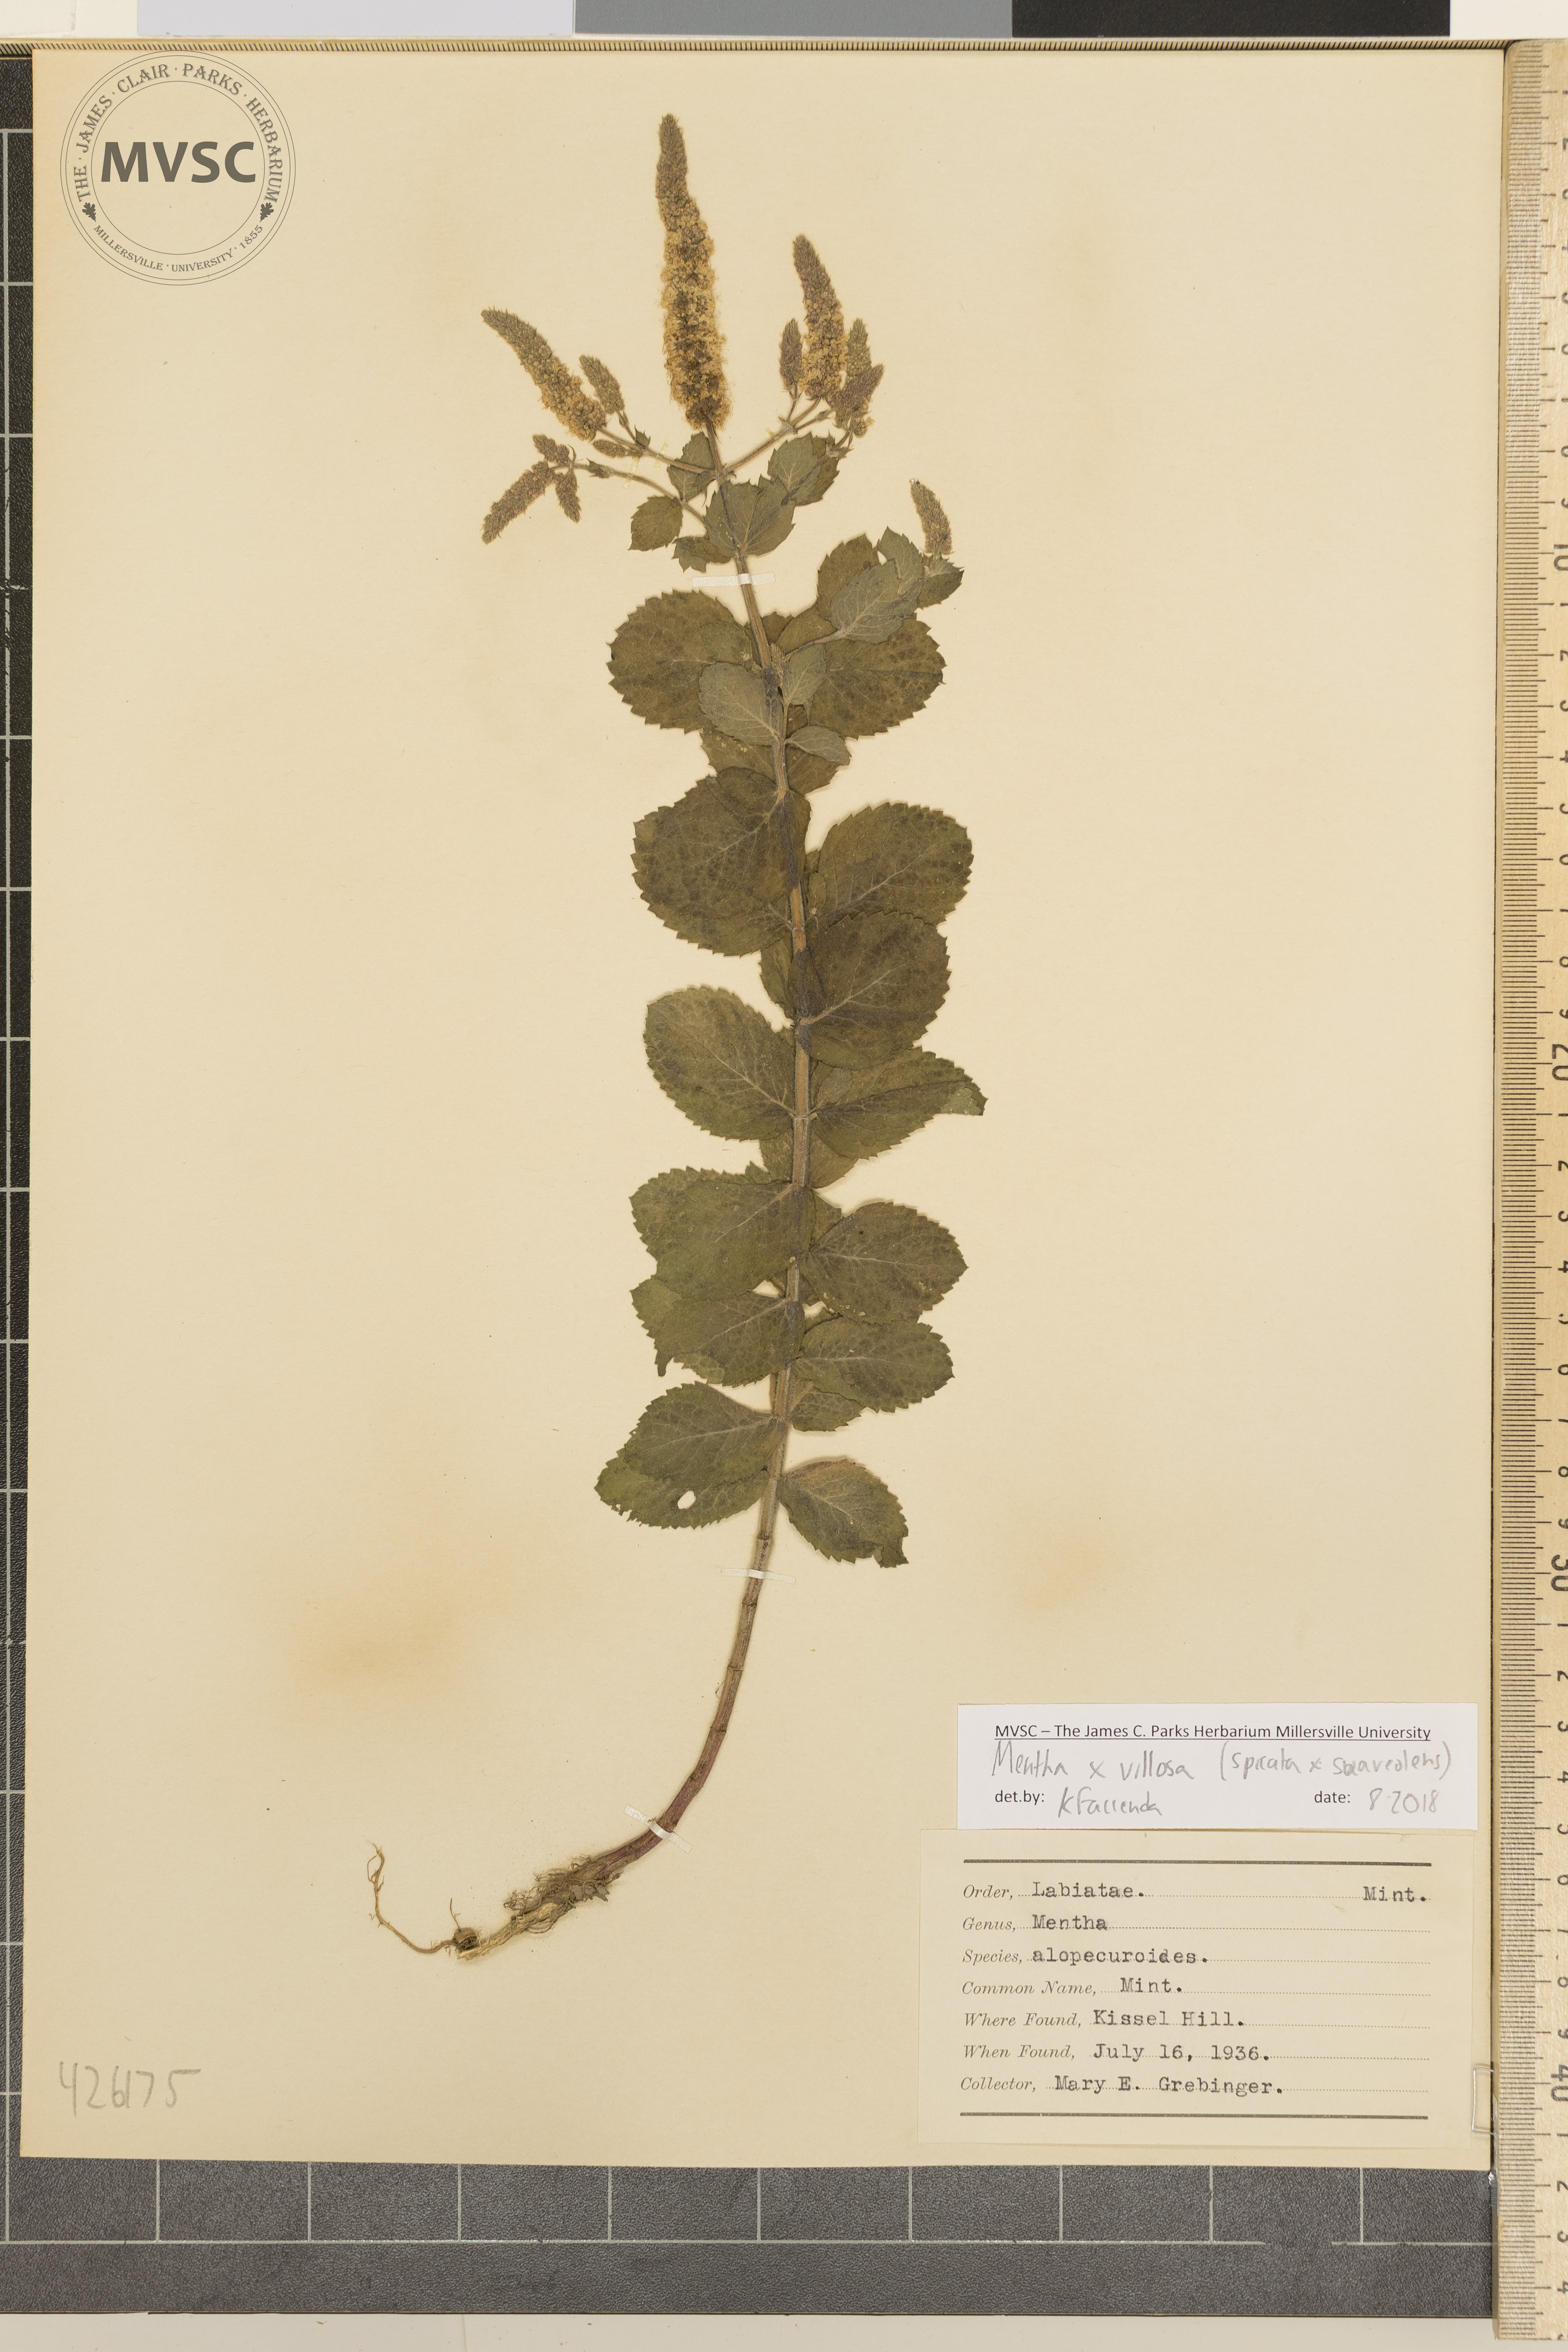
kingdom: Plantae
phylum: Tracheophyta
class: Magnoliopsida
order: Lamiales
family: Lamiaceae
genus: Mentha
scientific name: Mentha villosa
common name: Mint
